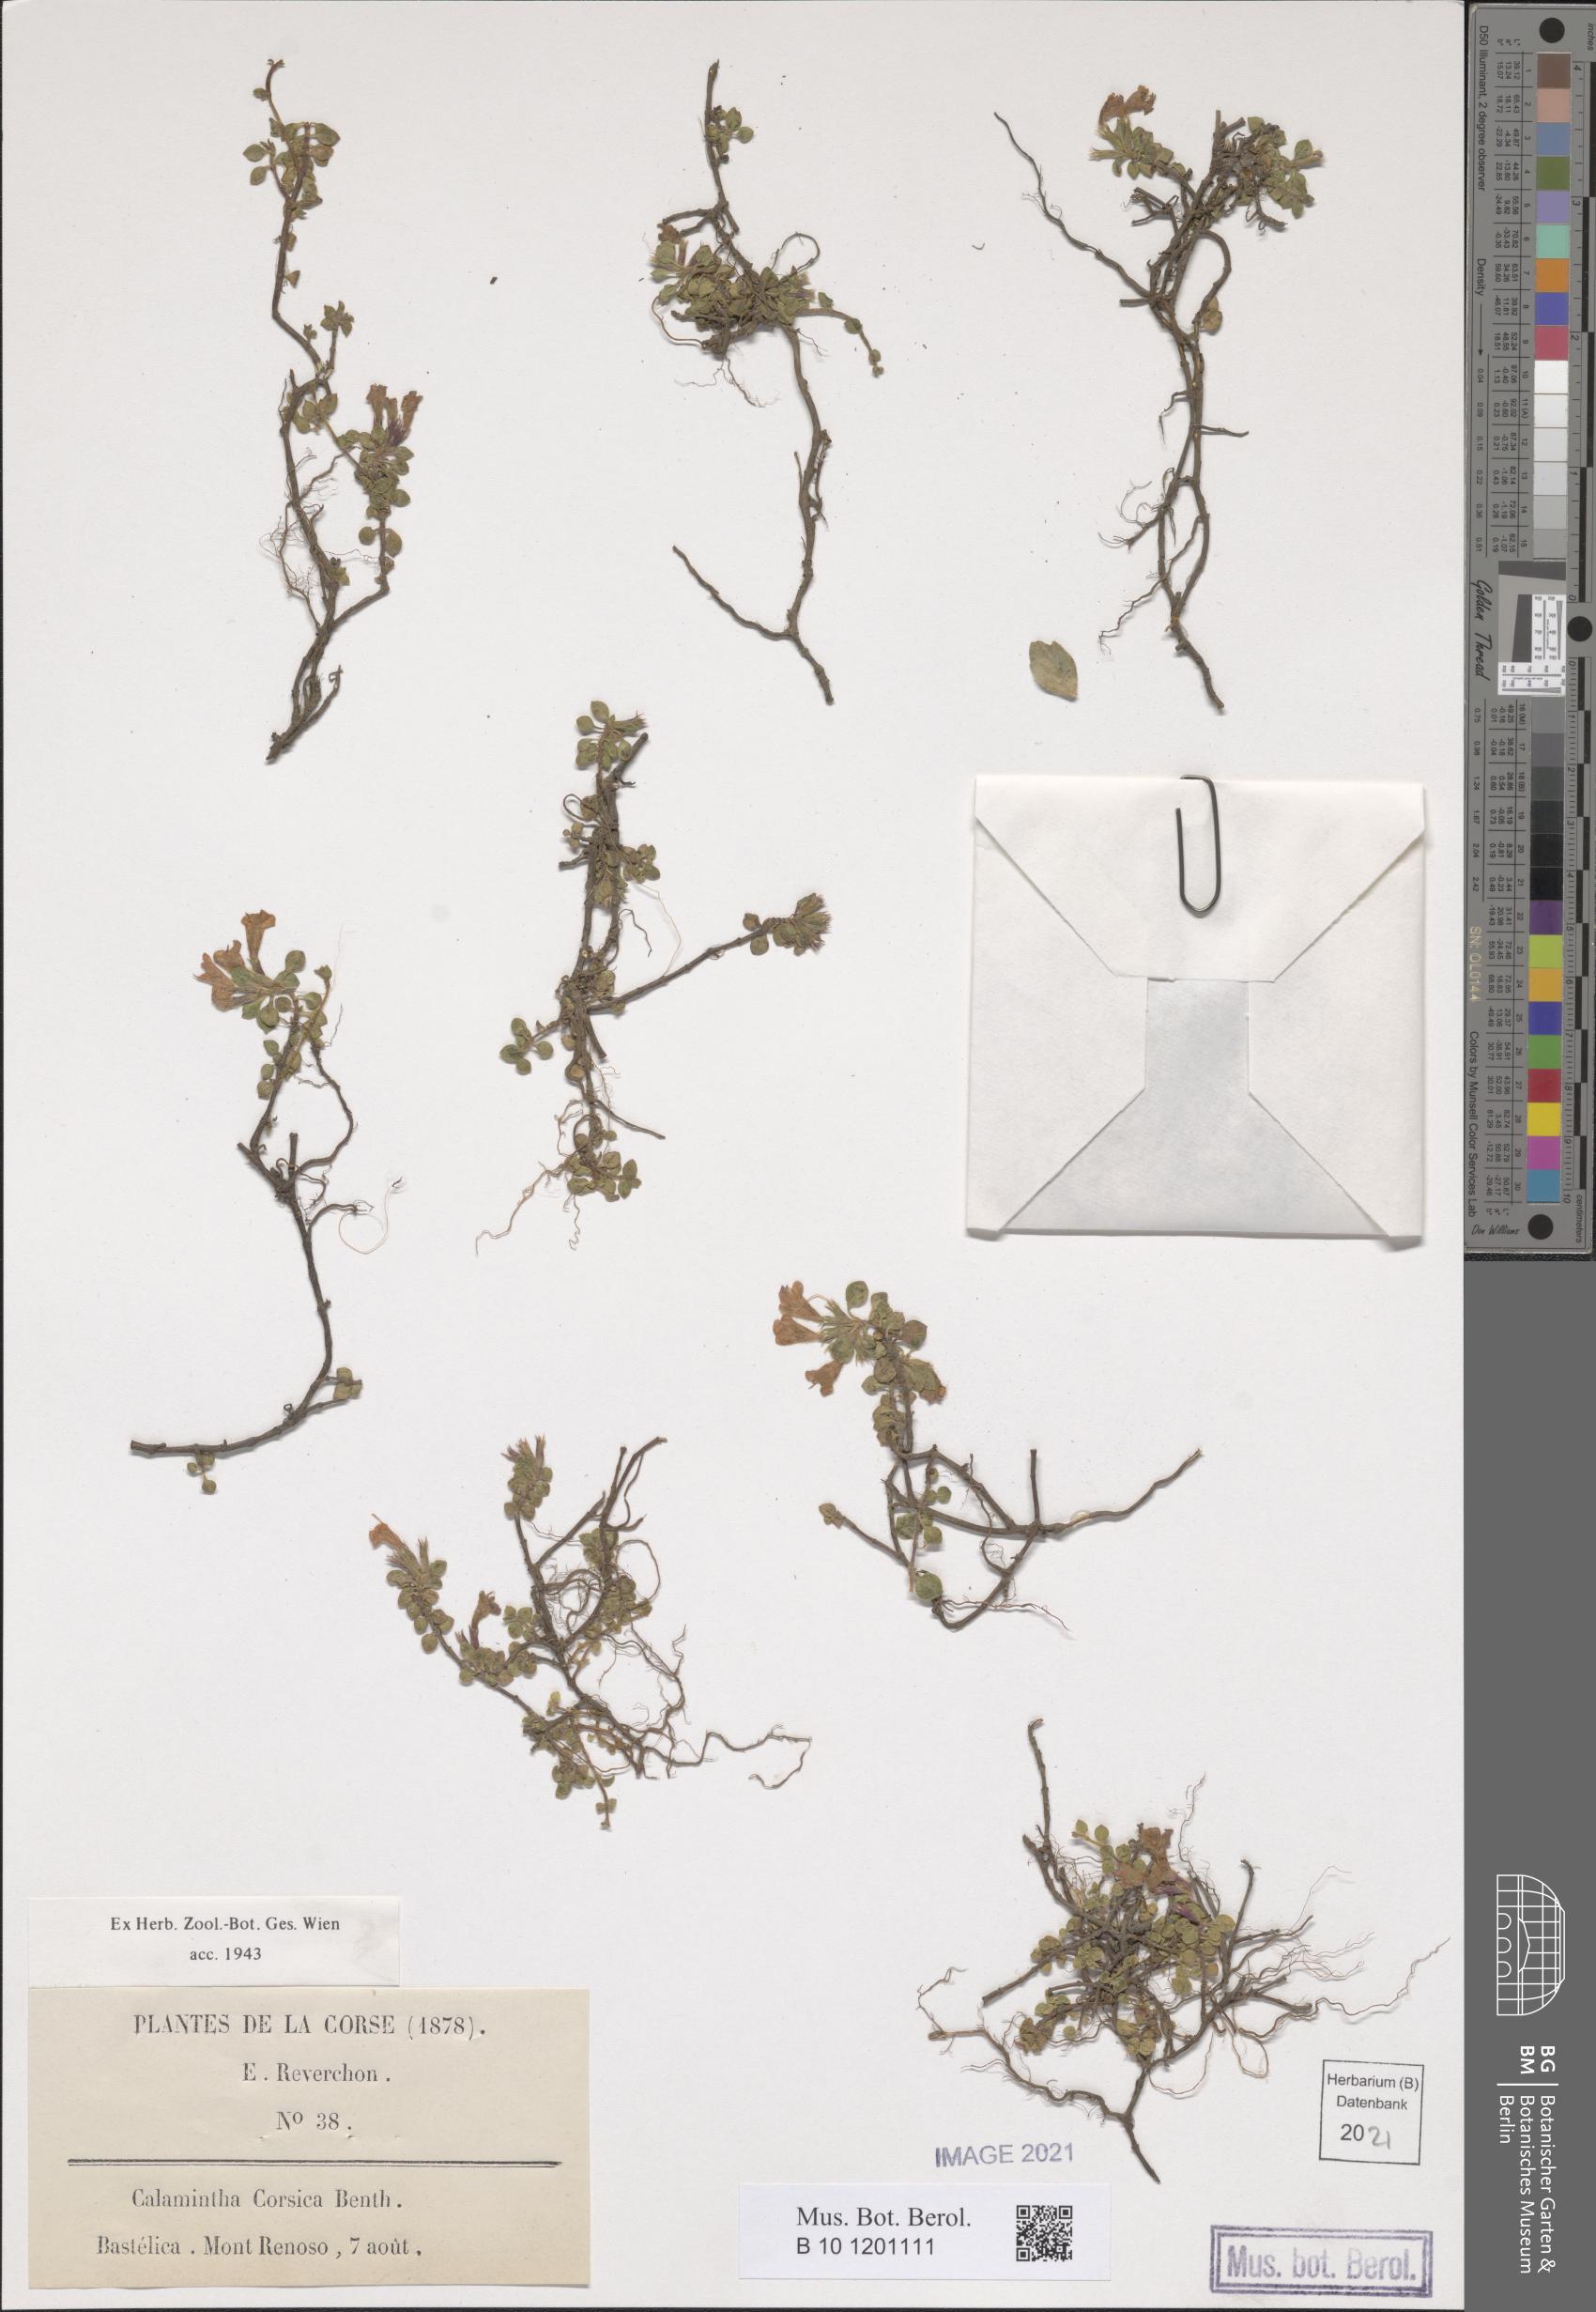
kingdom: Plantae
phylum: Tracheophyta
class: Magnoliopsida
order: Lamiales
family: Lamiaceae
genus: Clinopodium
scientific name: Clinopodium corsicum
